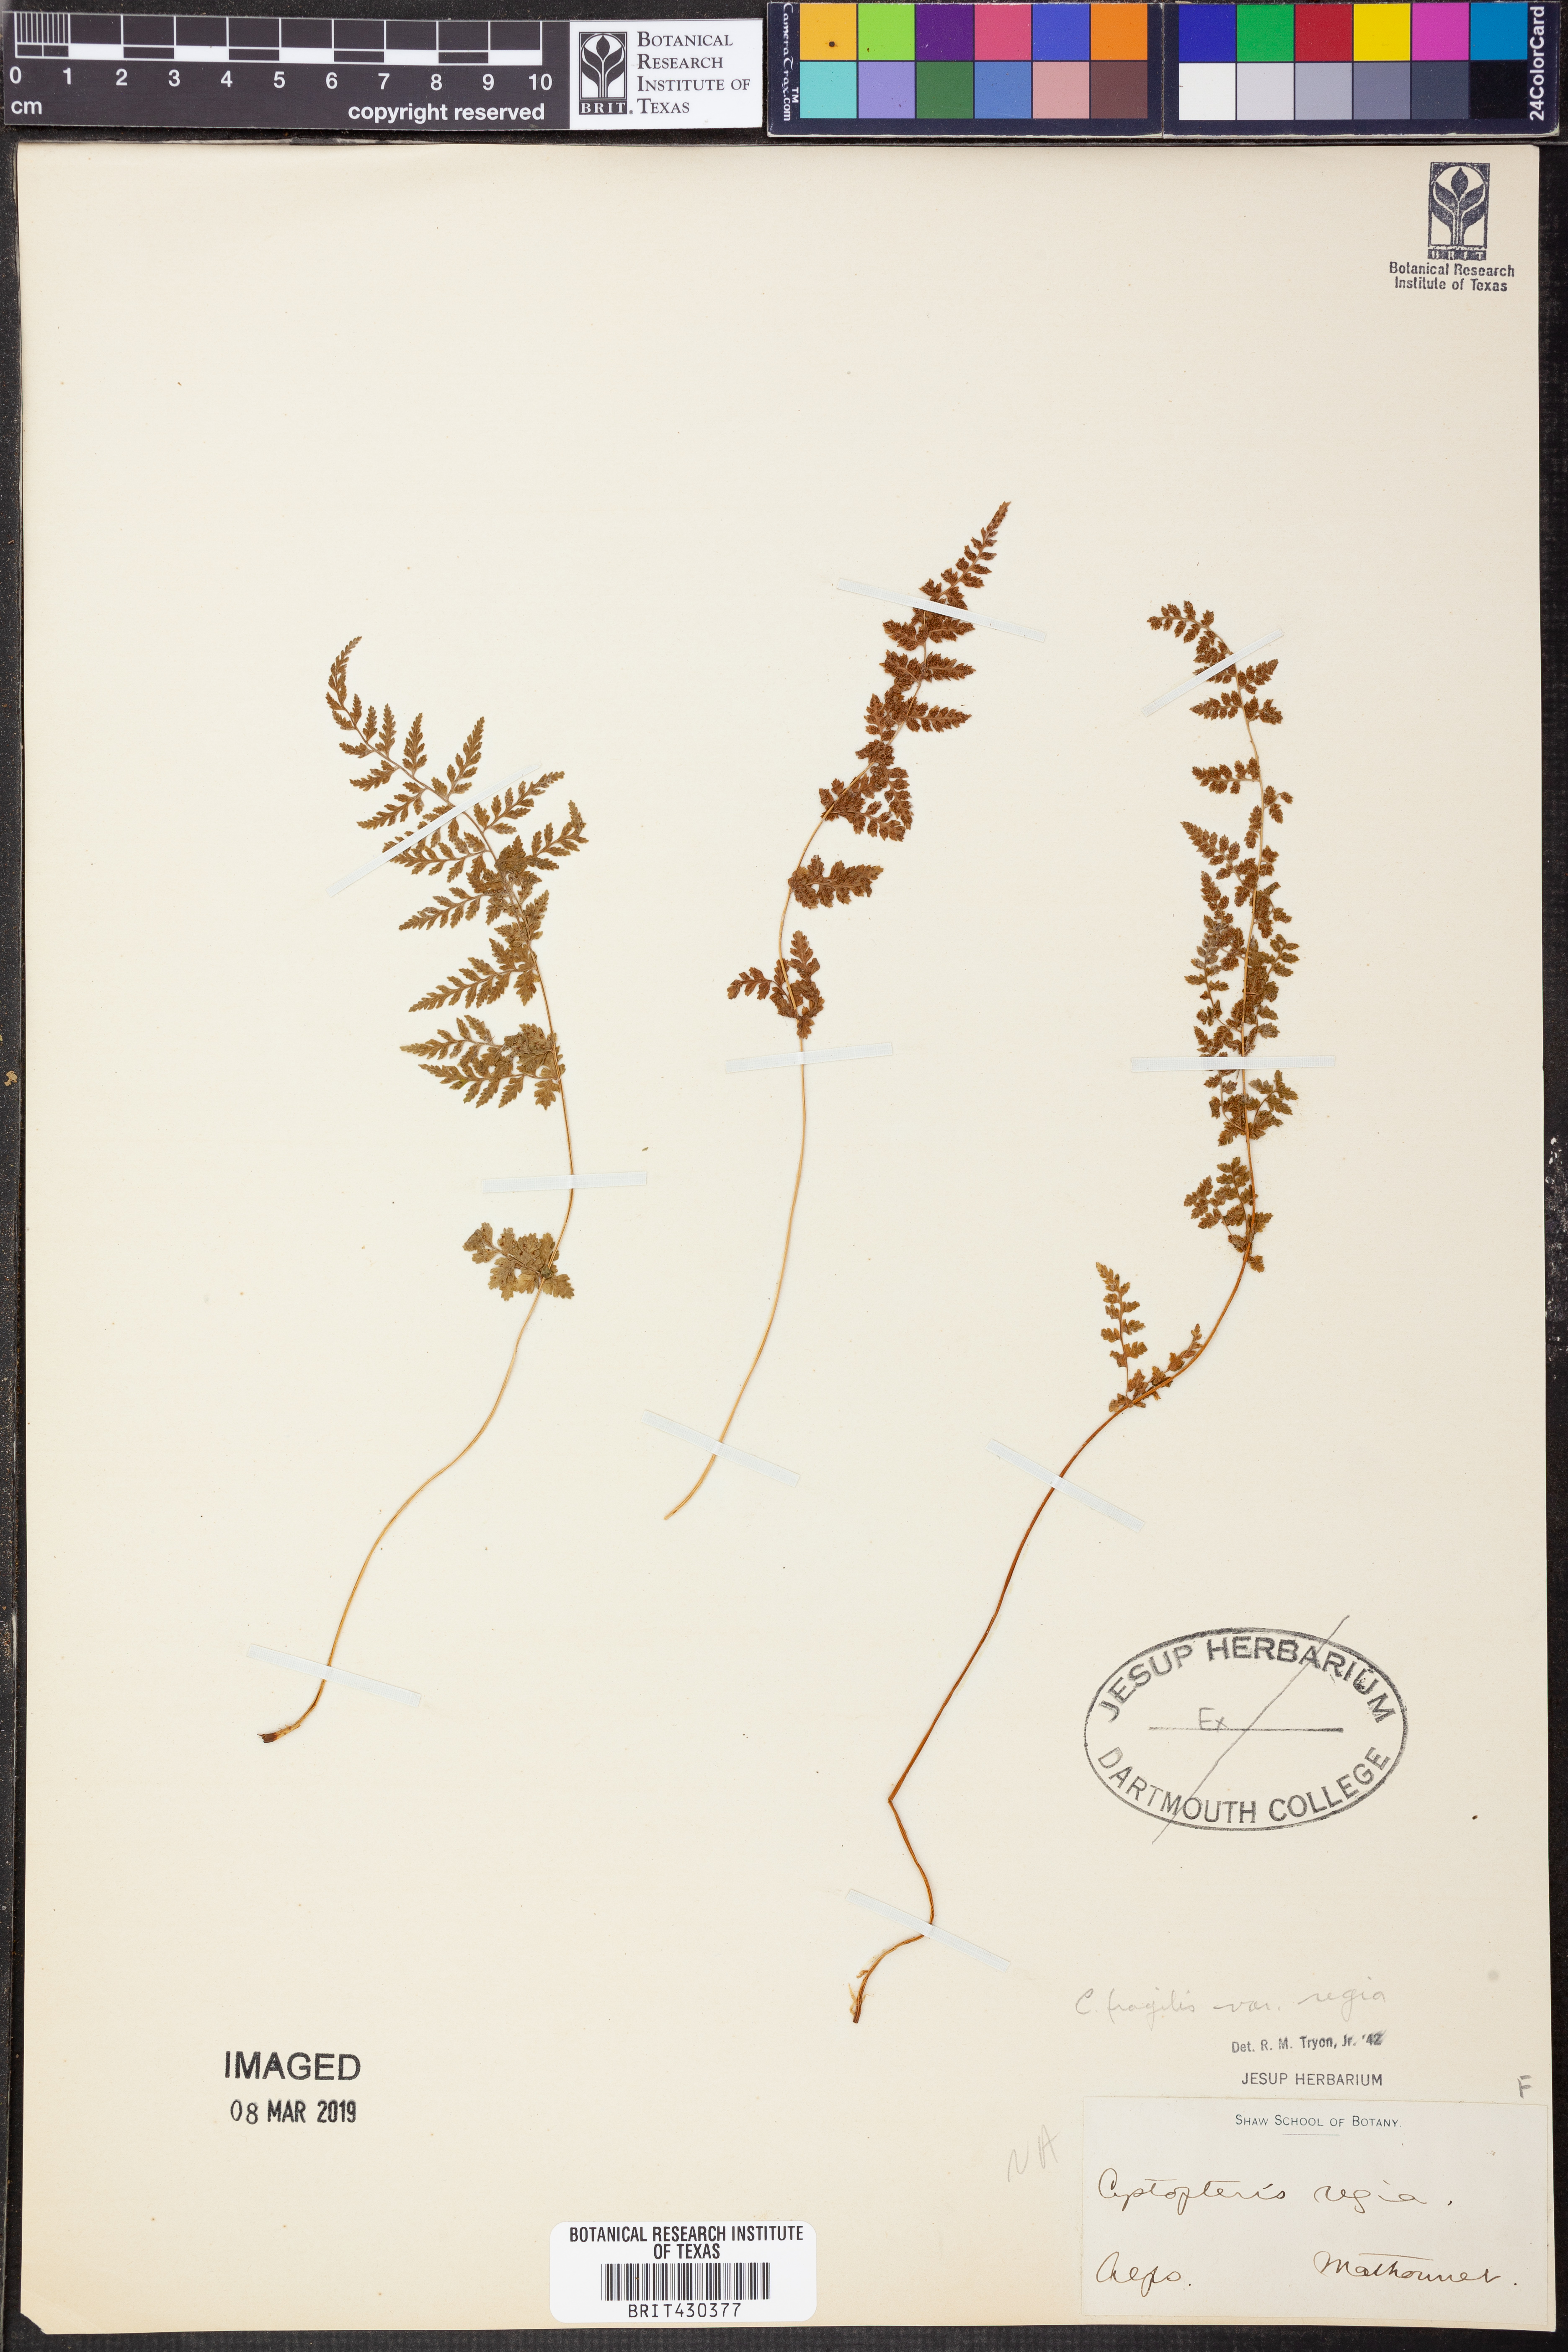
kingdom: Plantae
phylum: Tracheophyta
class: Polypodiopsida
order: Polypodiales
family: Cystopteridaceae
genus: Cystopteris
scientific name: Cystopteris fragilis
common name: Brittle bladder fern
